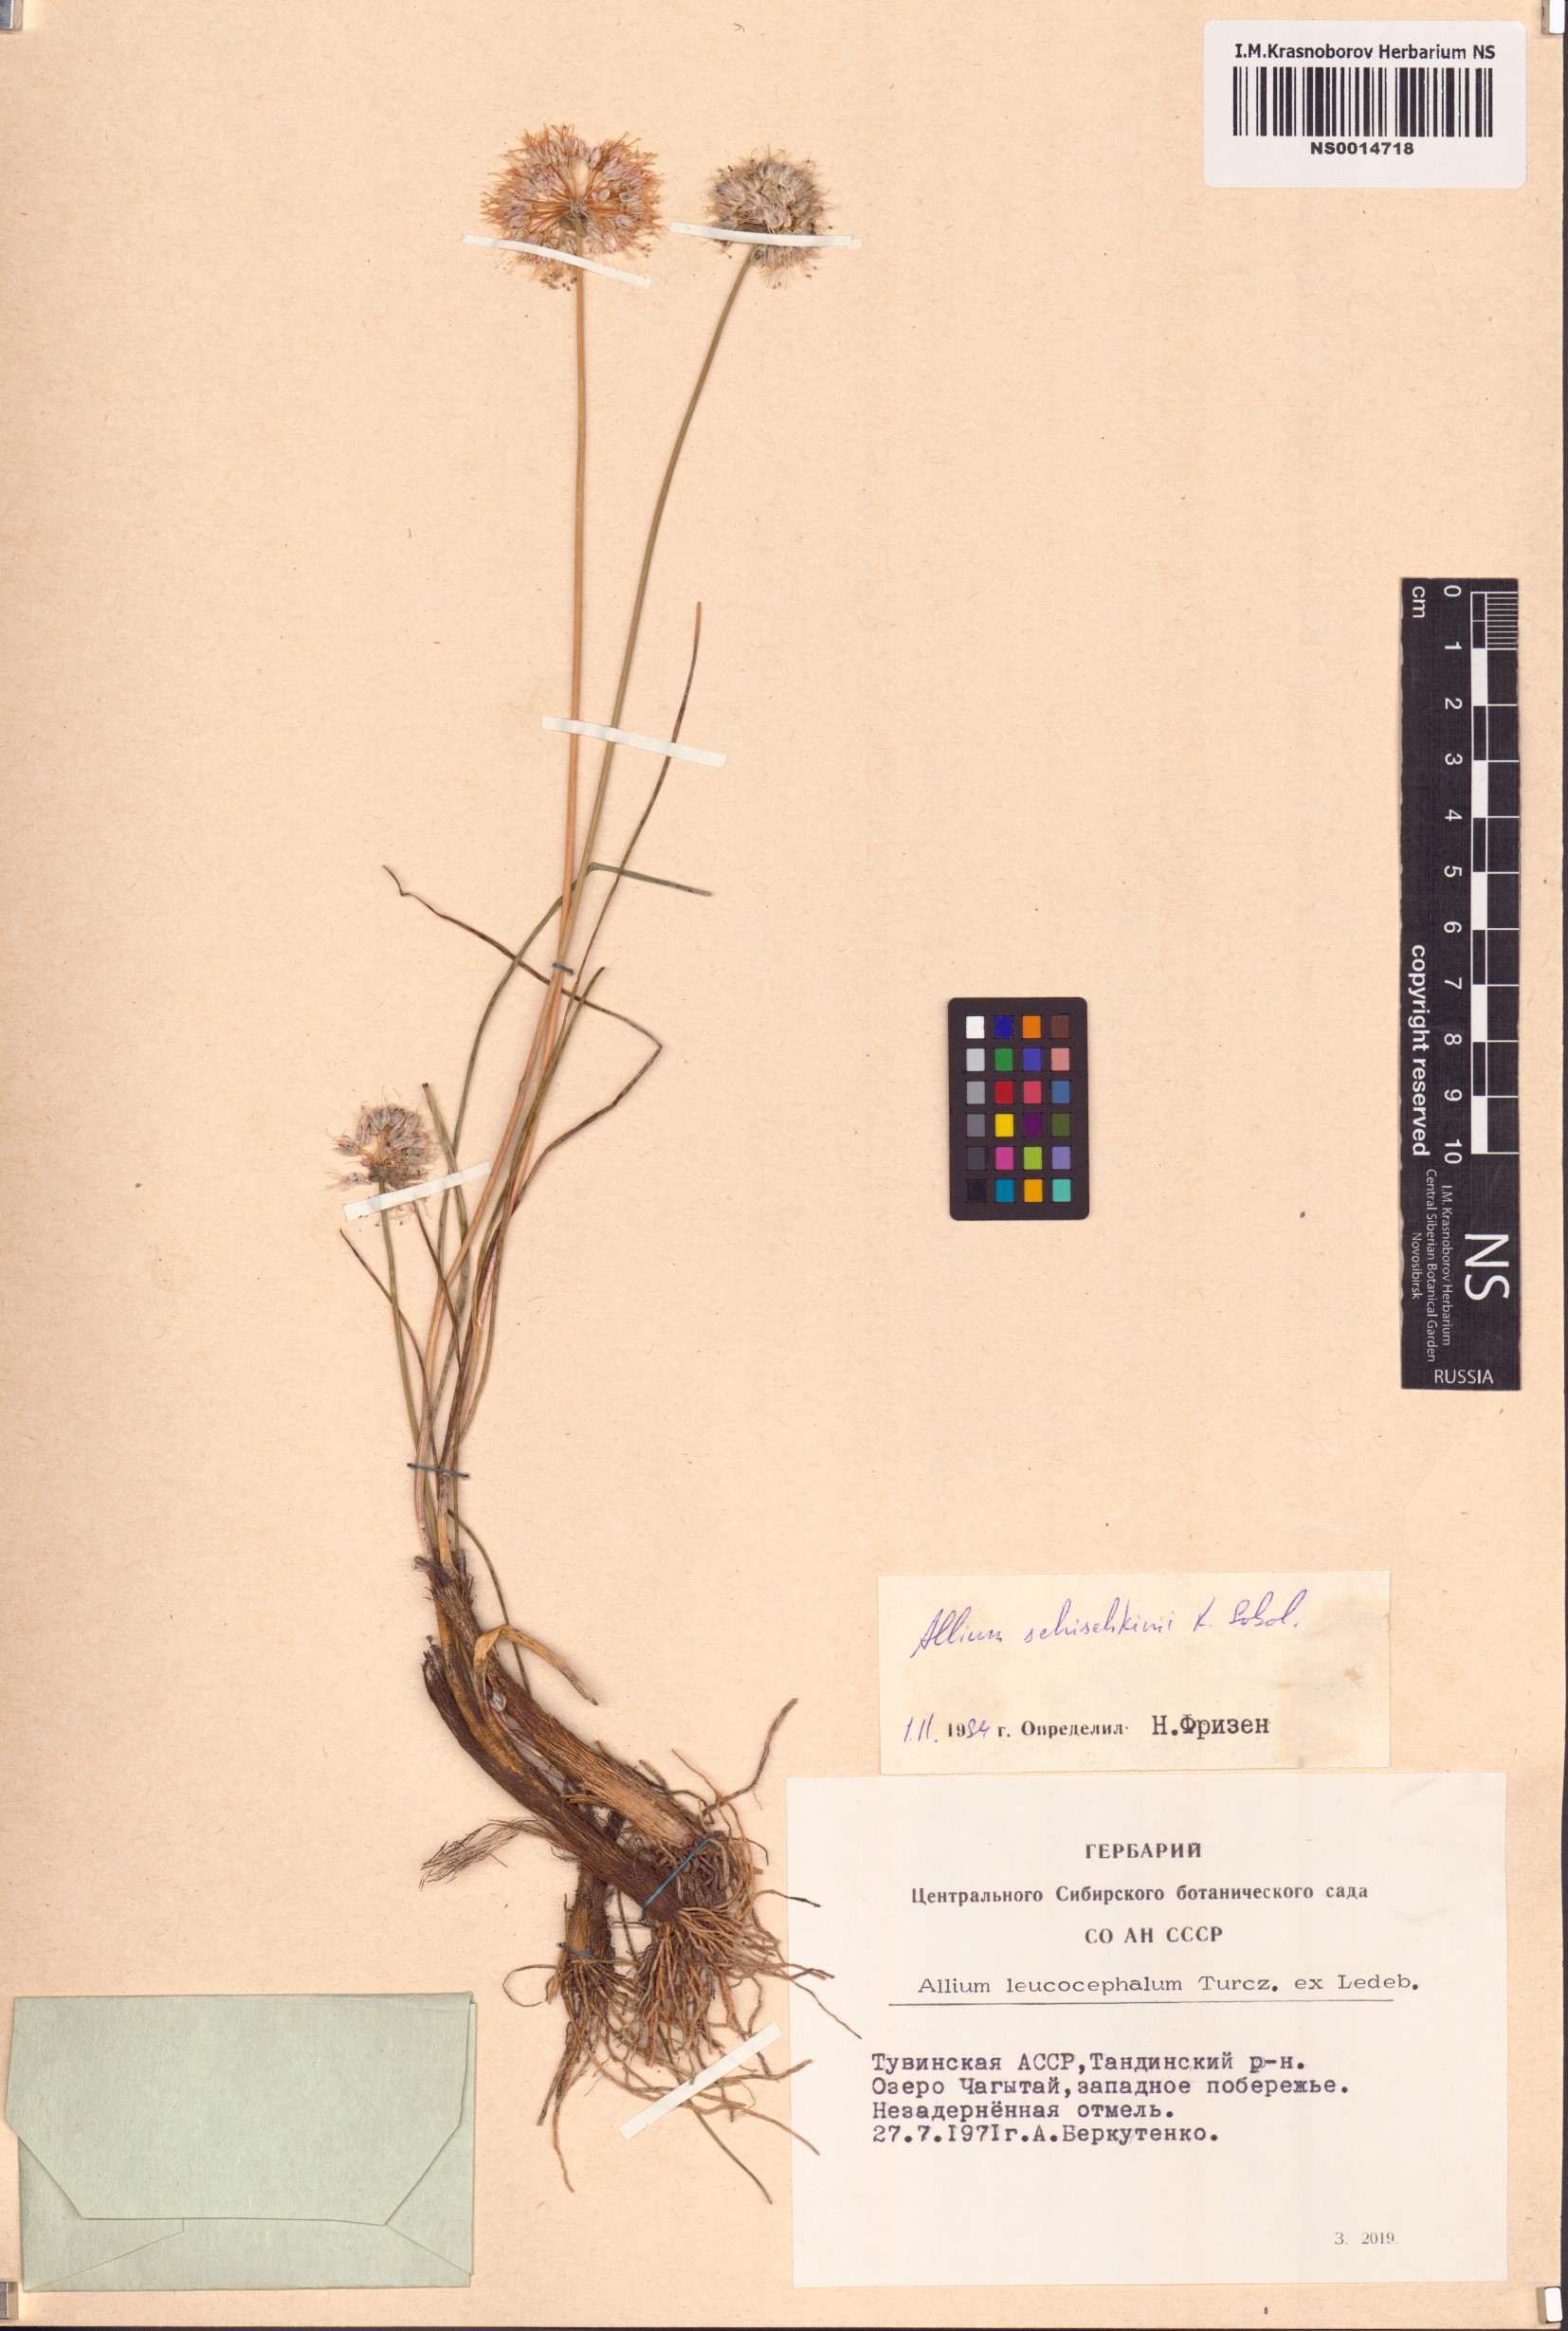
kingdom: Plantae
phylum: Tracheophyta
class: Liliopsida
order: Asparagales
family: Amaryllidaceae
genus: Allium
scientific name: Allium schischkinii
